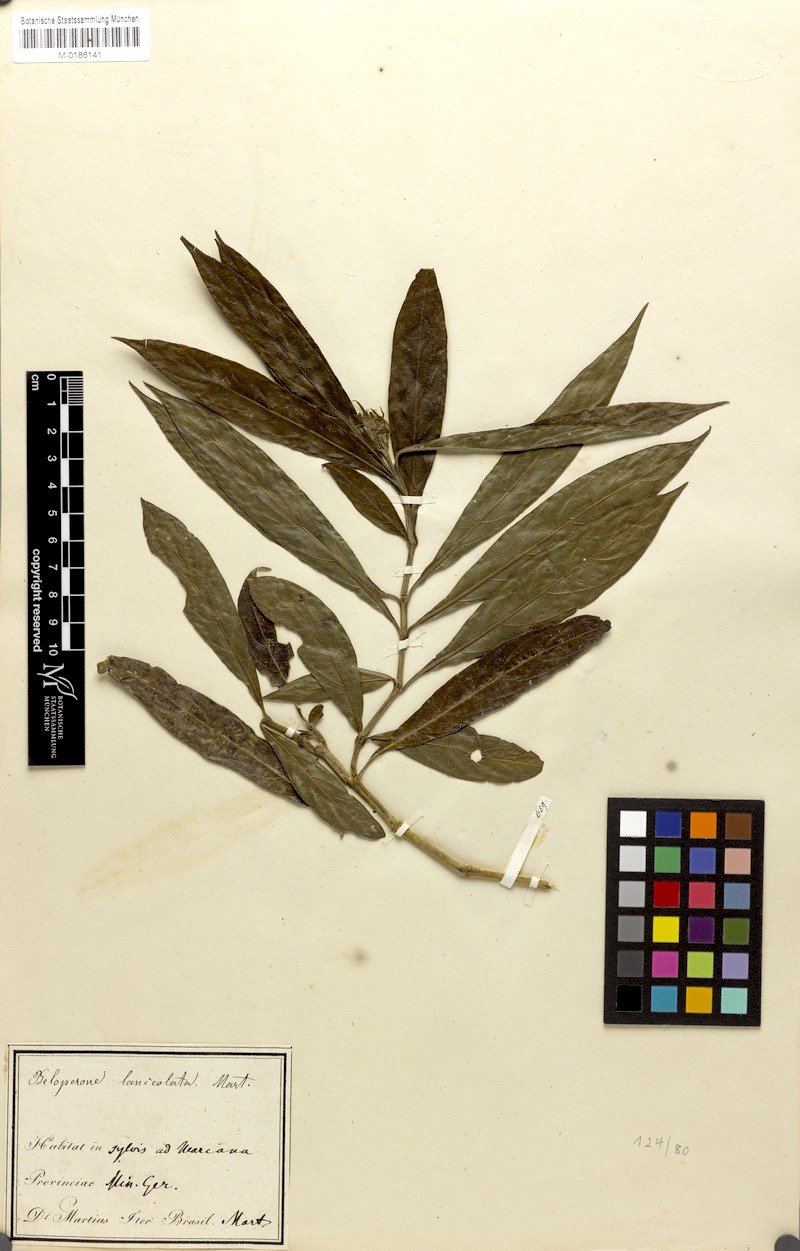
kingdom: Plantae
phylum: Tracheophyta
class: Magnoliopsida
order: Lamiales
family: Acanthaceae
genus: Justicia
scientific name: Justicia minensis
